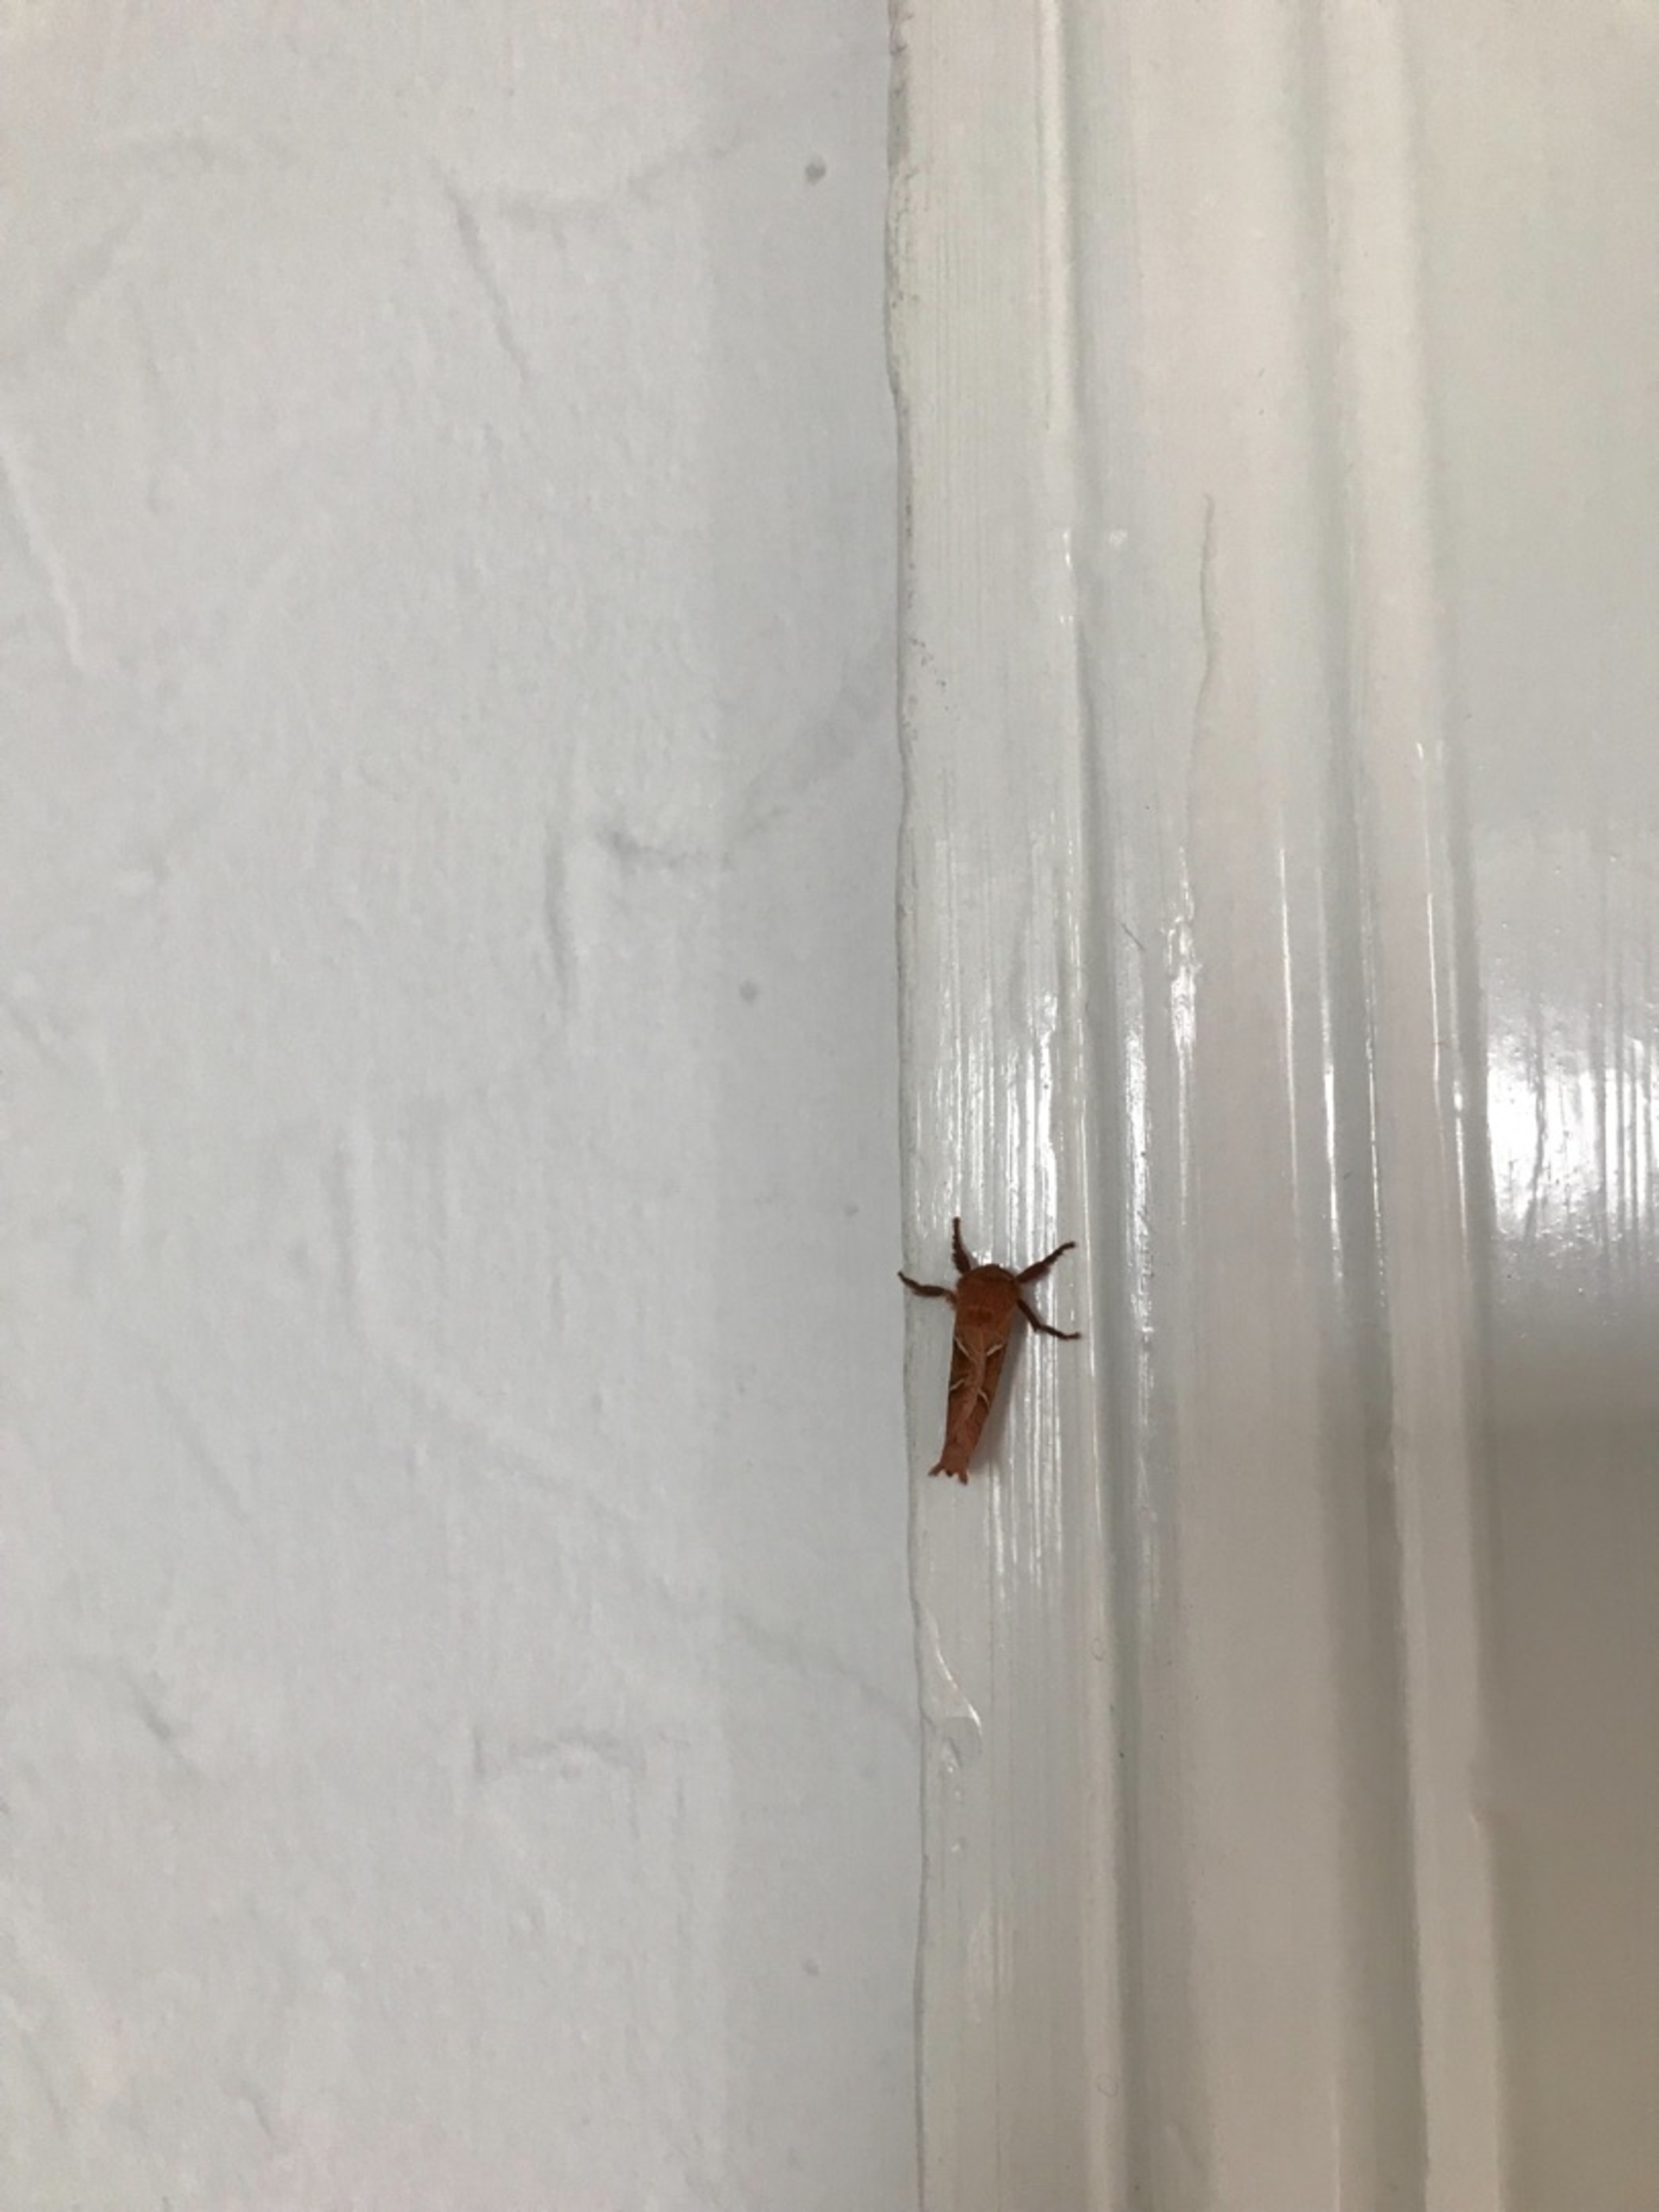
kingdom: Animalia
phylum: Arthropoda
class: Insecta
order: Lepidoptera
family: Hepialidae
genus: Triodia
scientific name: Triodia sylvina
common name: Skræpperodæder
